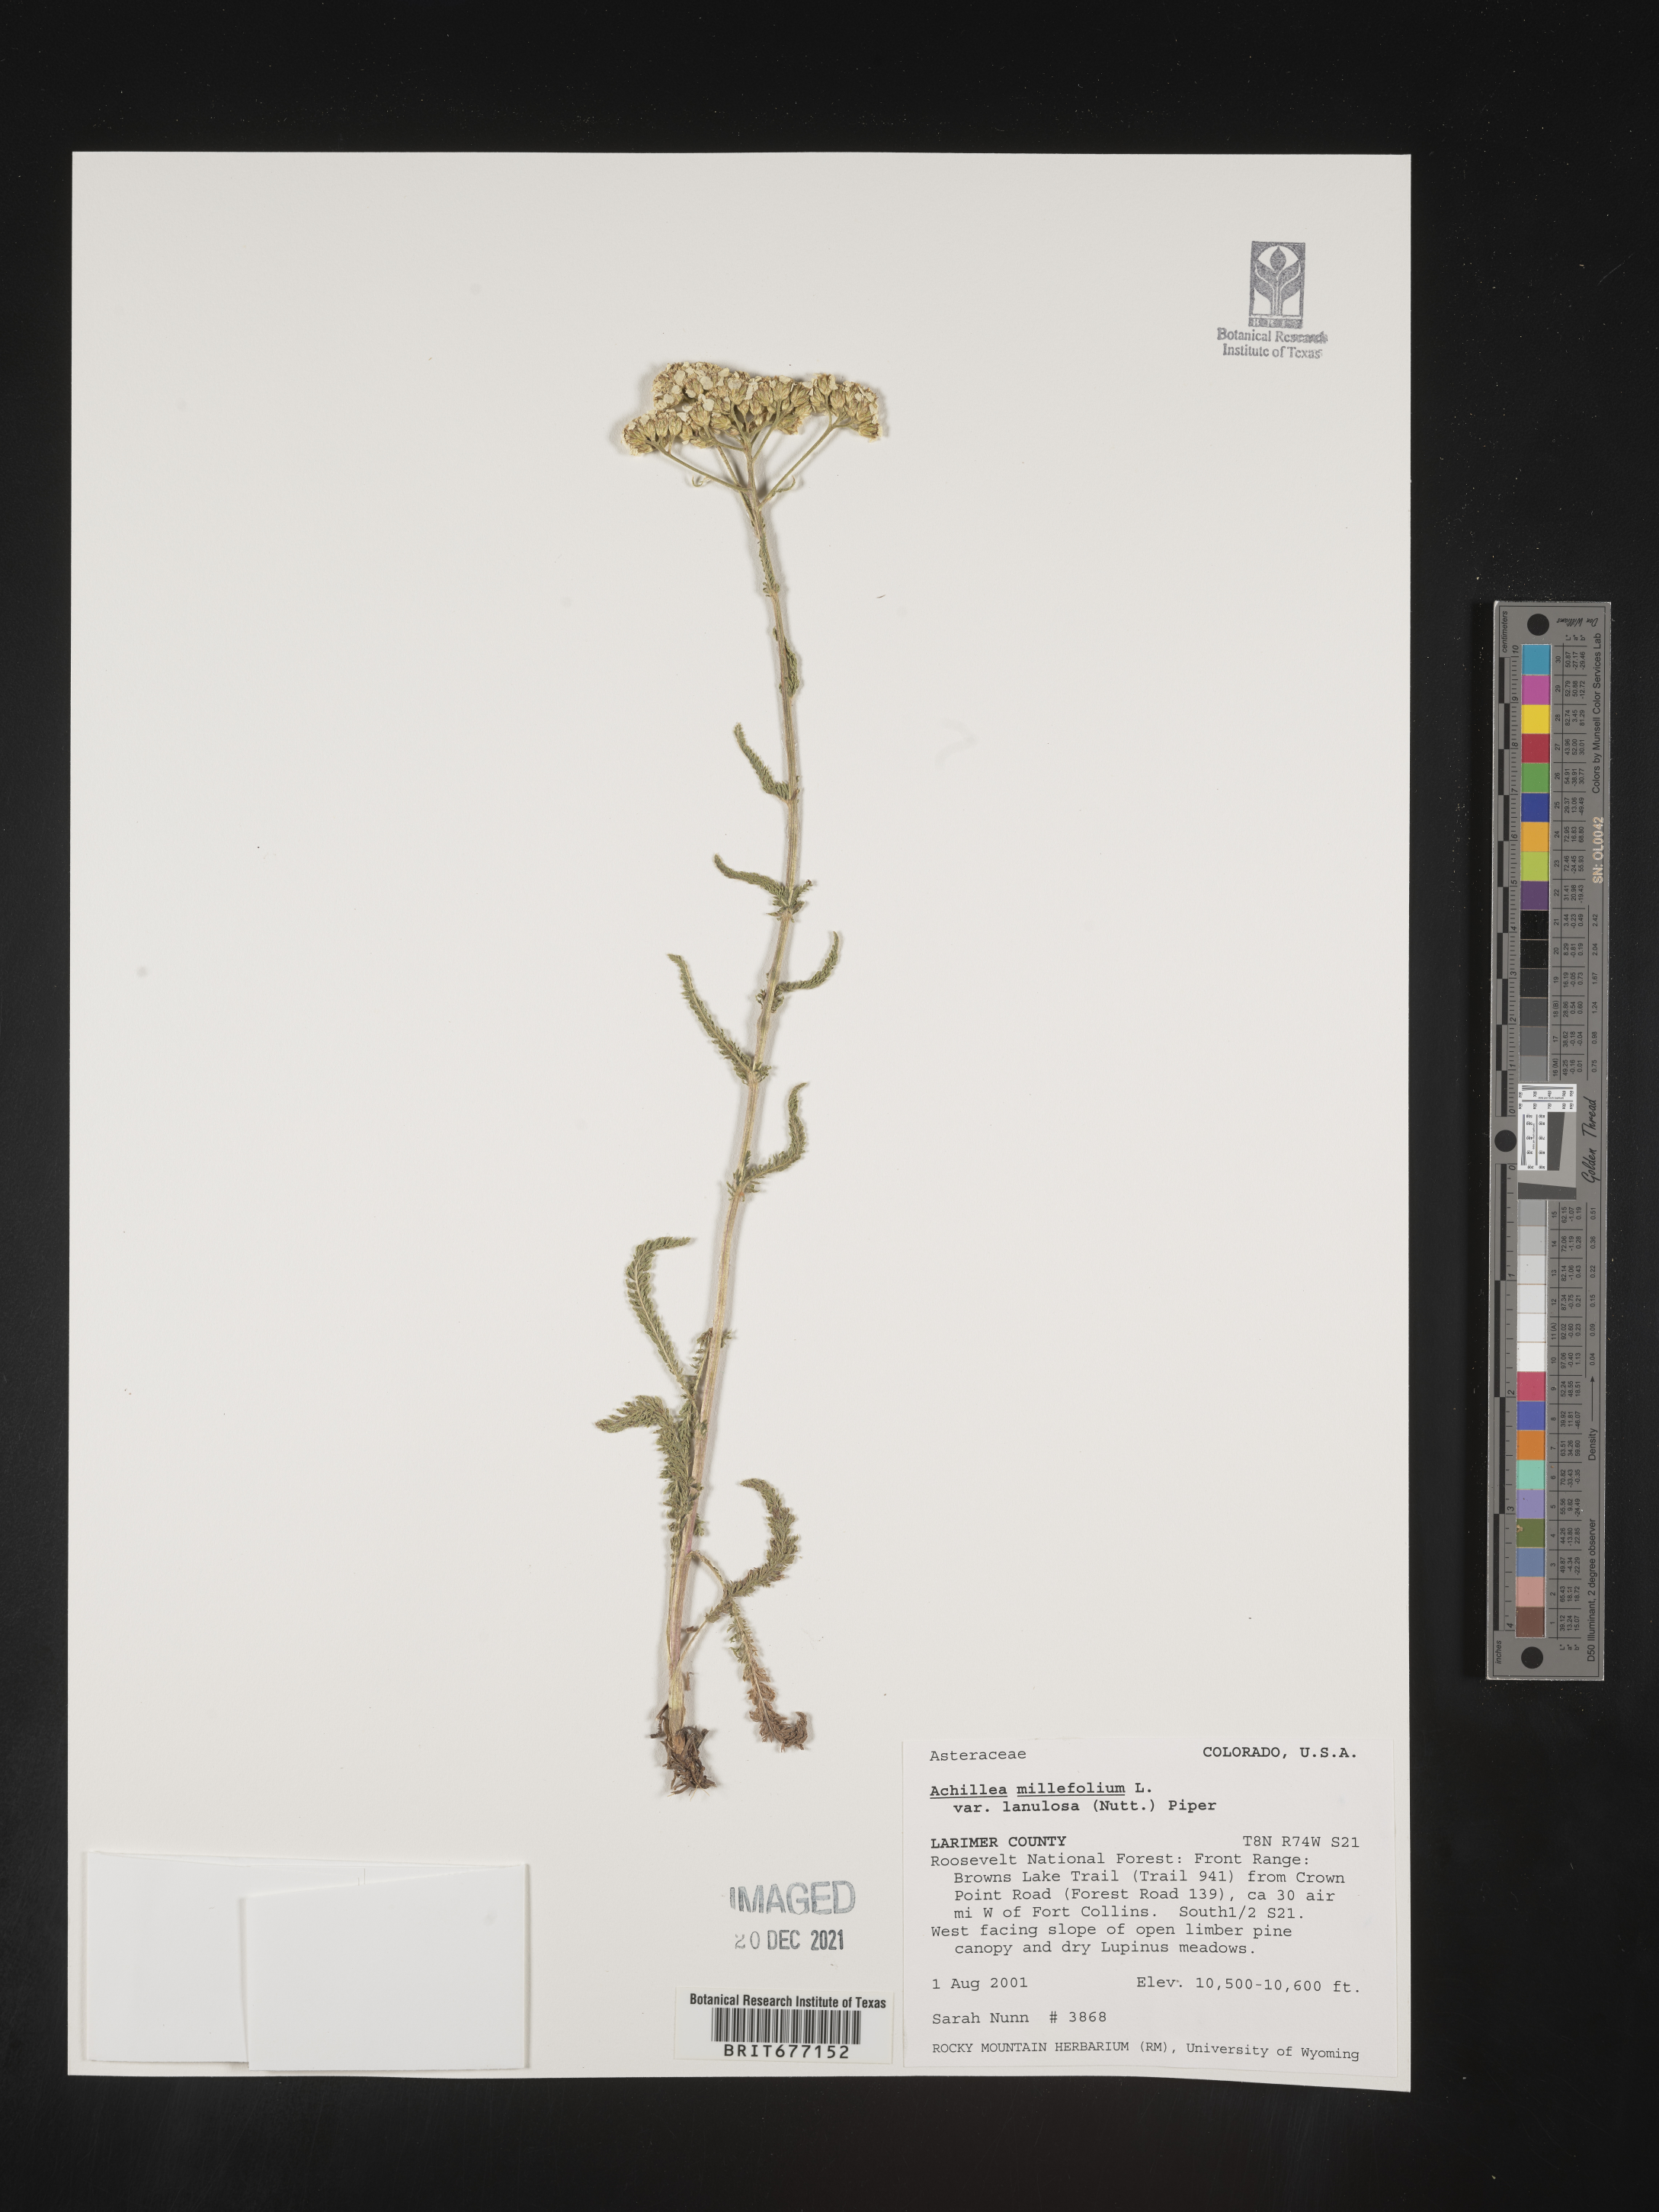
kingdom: Plantae
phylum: Tracheophyta
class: Magnoliopsida
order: Asterales
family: Asteraceae
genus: Achillea
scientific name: Achillea millefolium
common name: Yarrow
